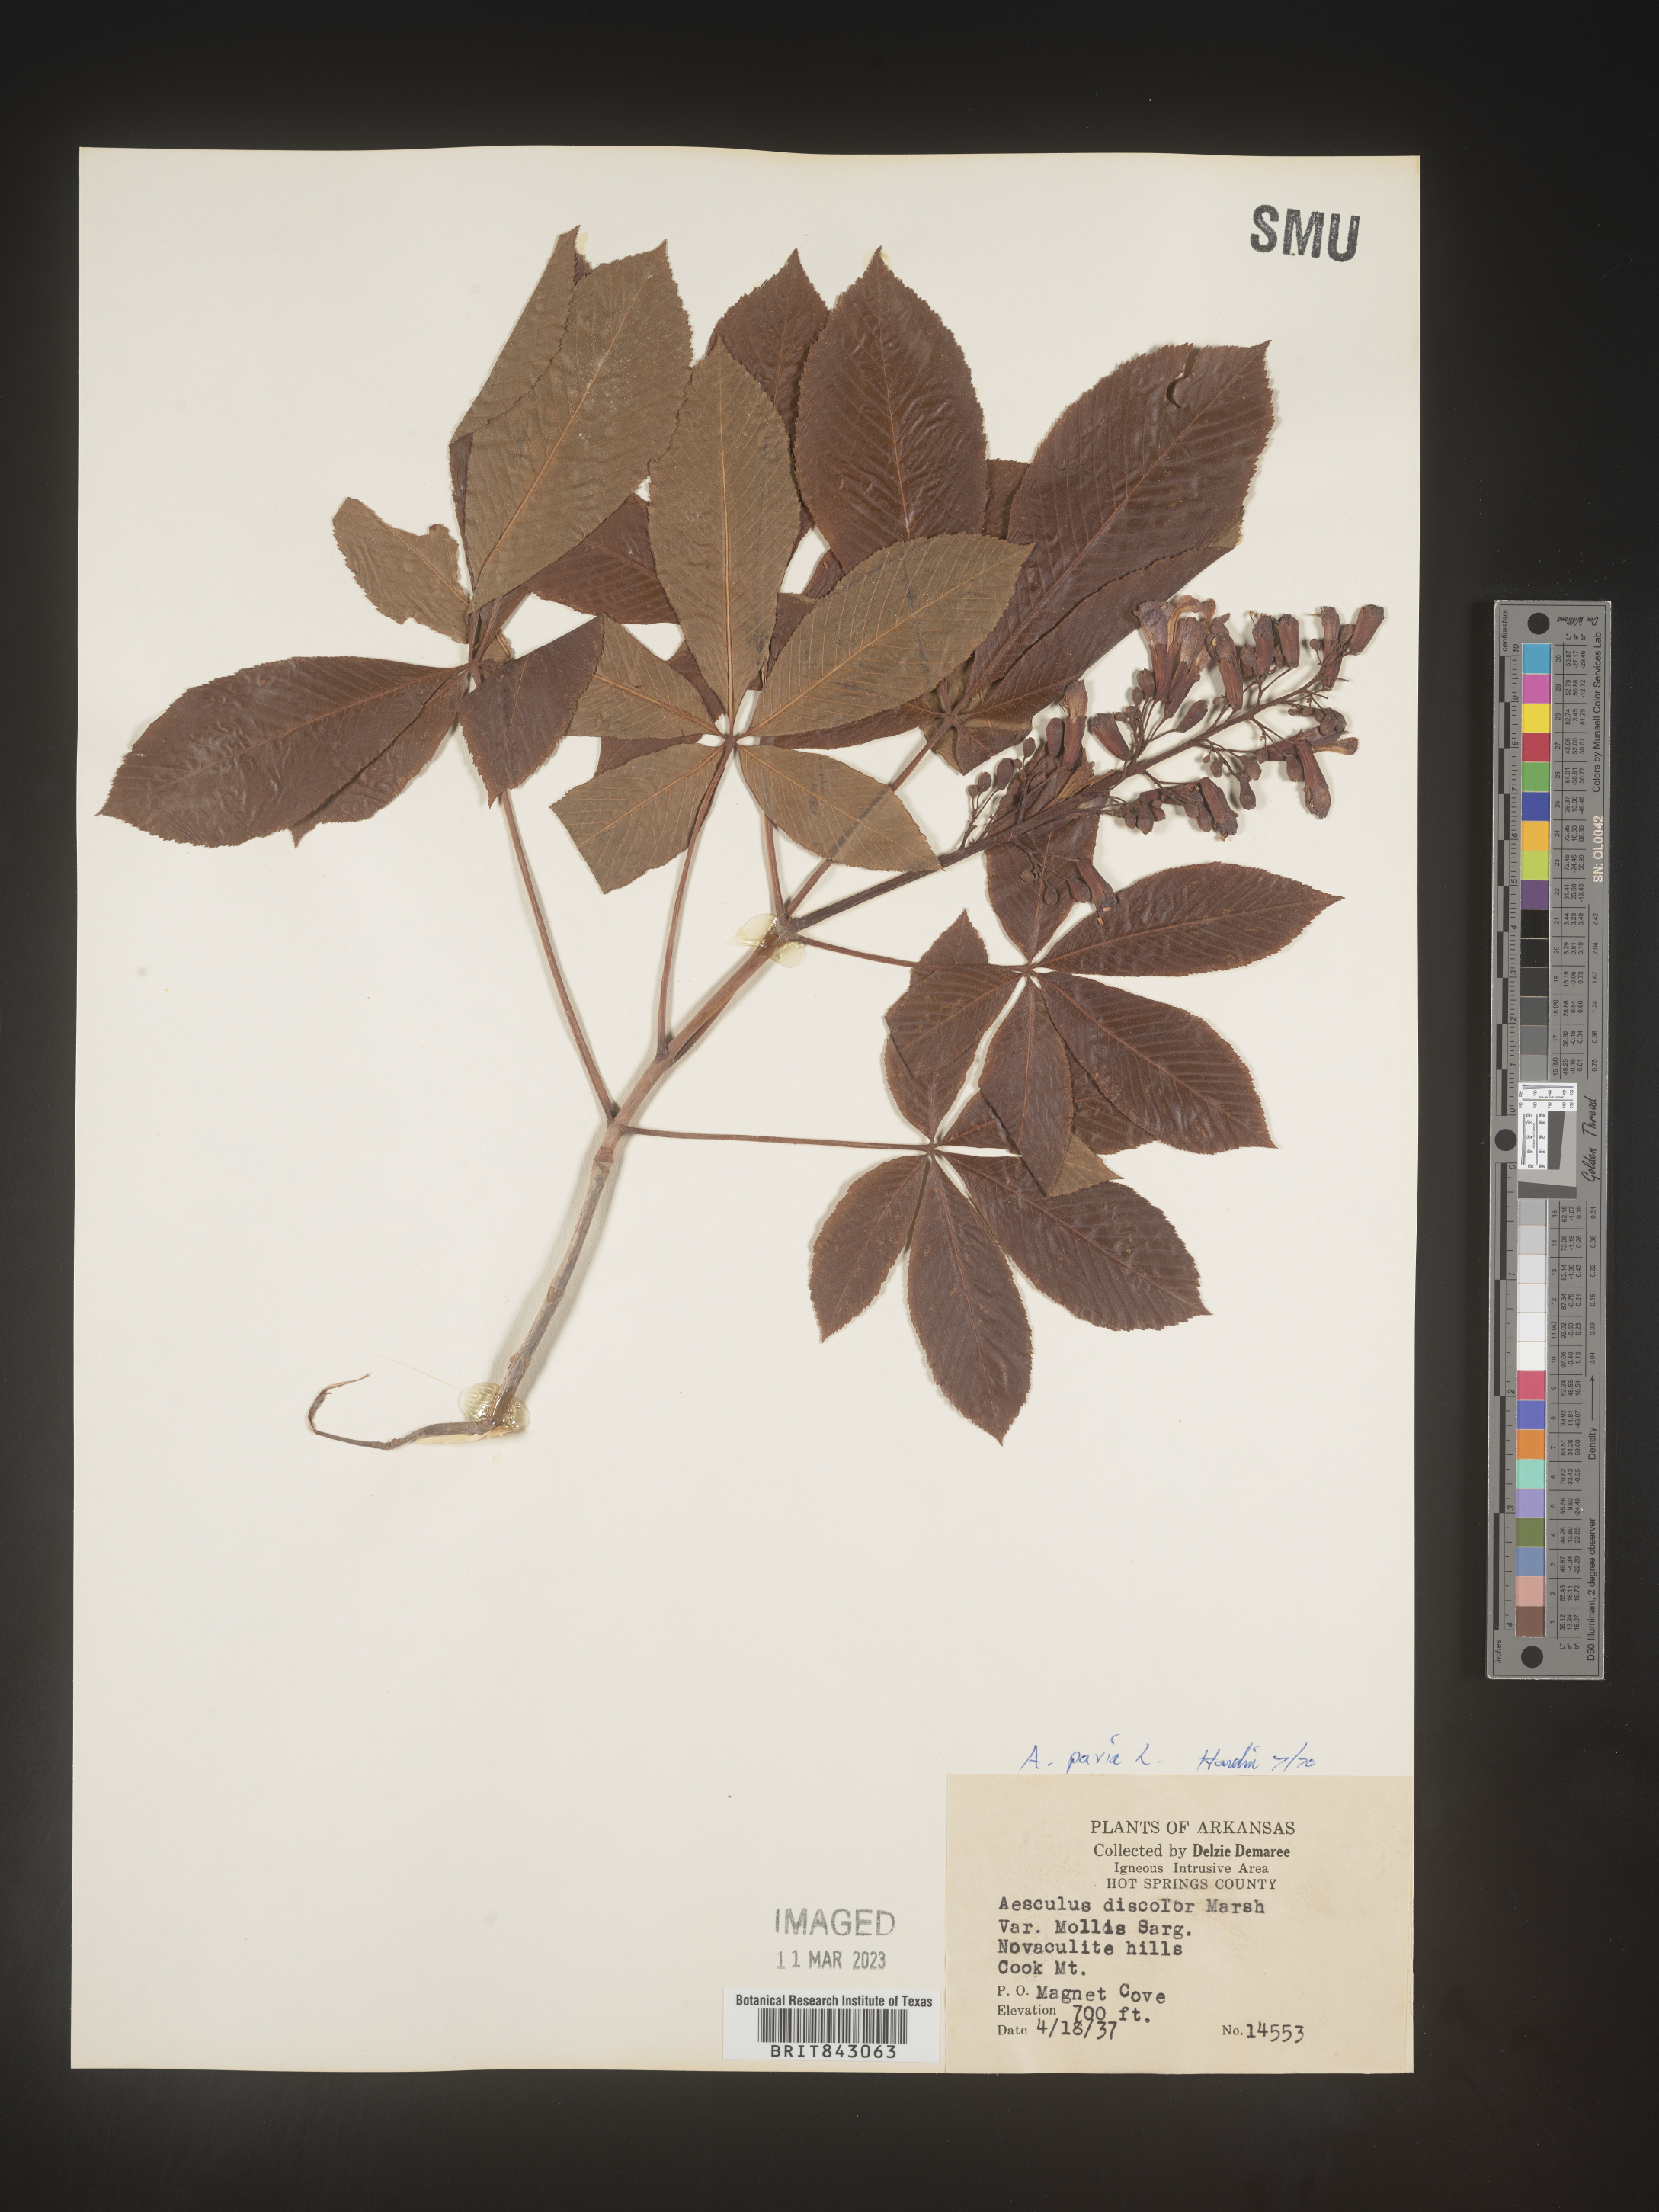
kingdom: Plantae
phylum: Tracheophyta
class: Magnoliopsida
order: Sapindales
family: Sapindaceae
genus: Aesculus
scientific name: Aesculus pavia
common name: Red buckeye
